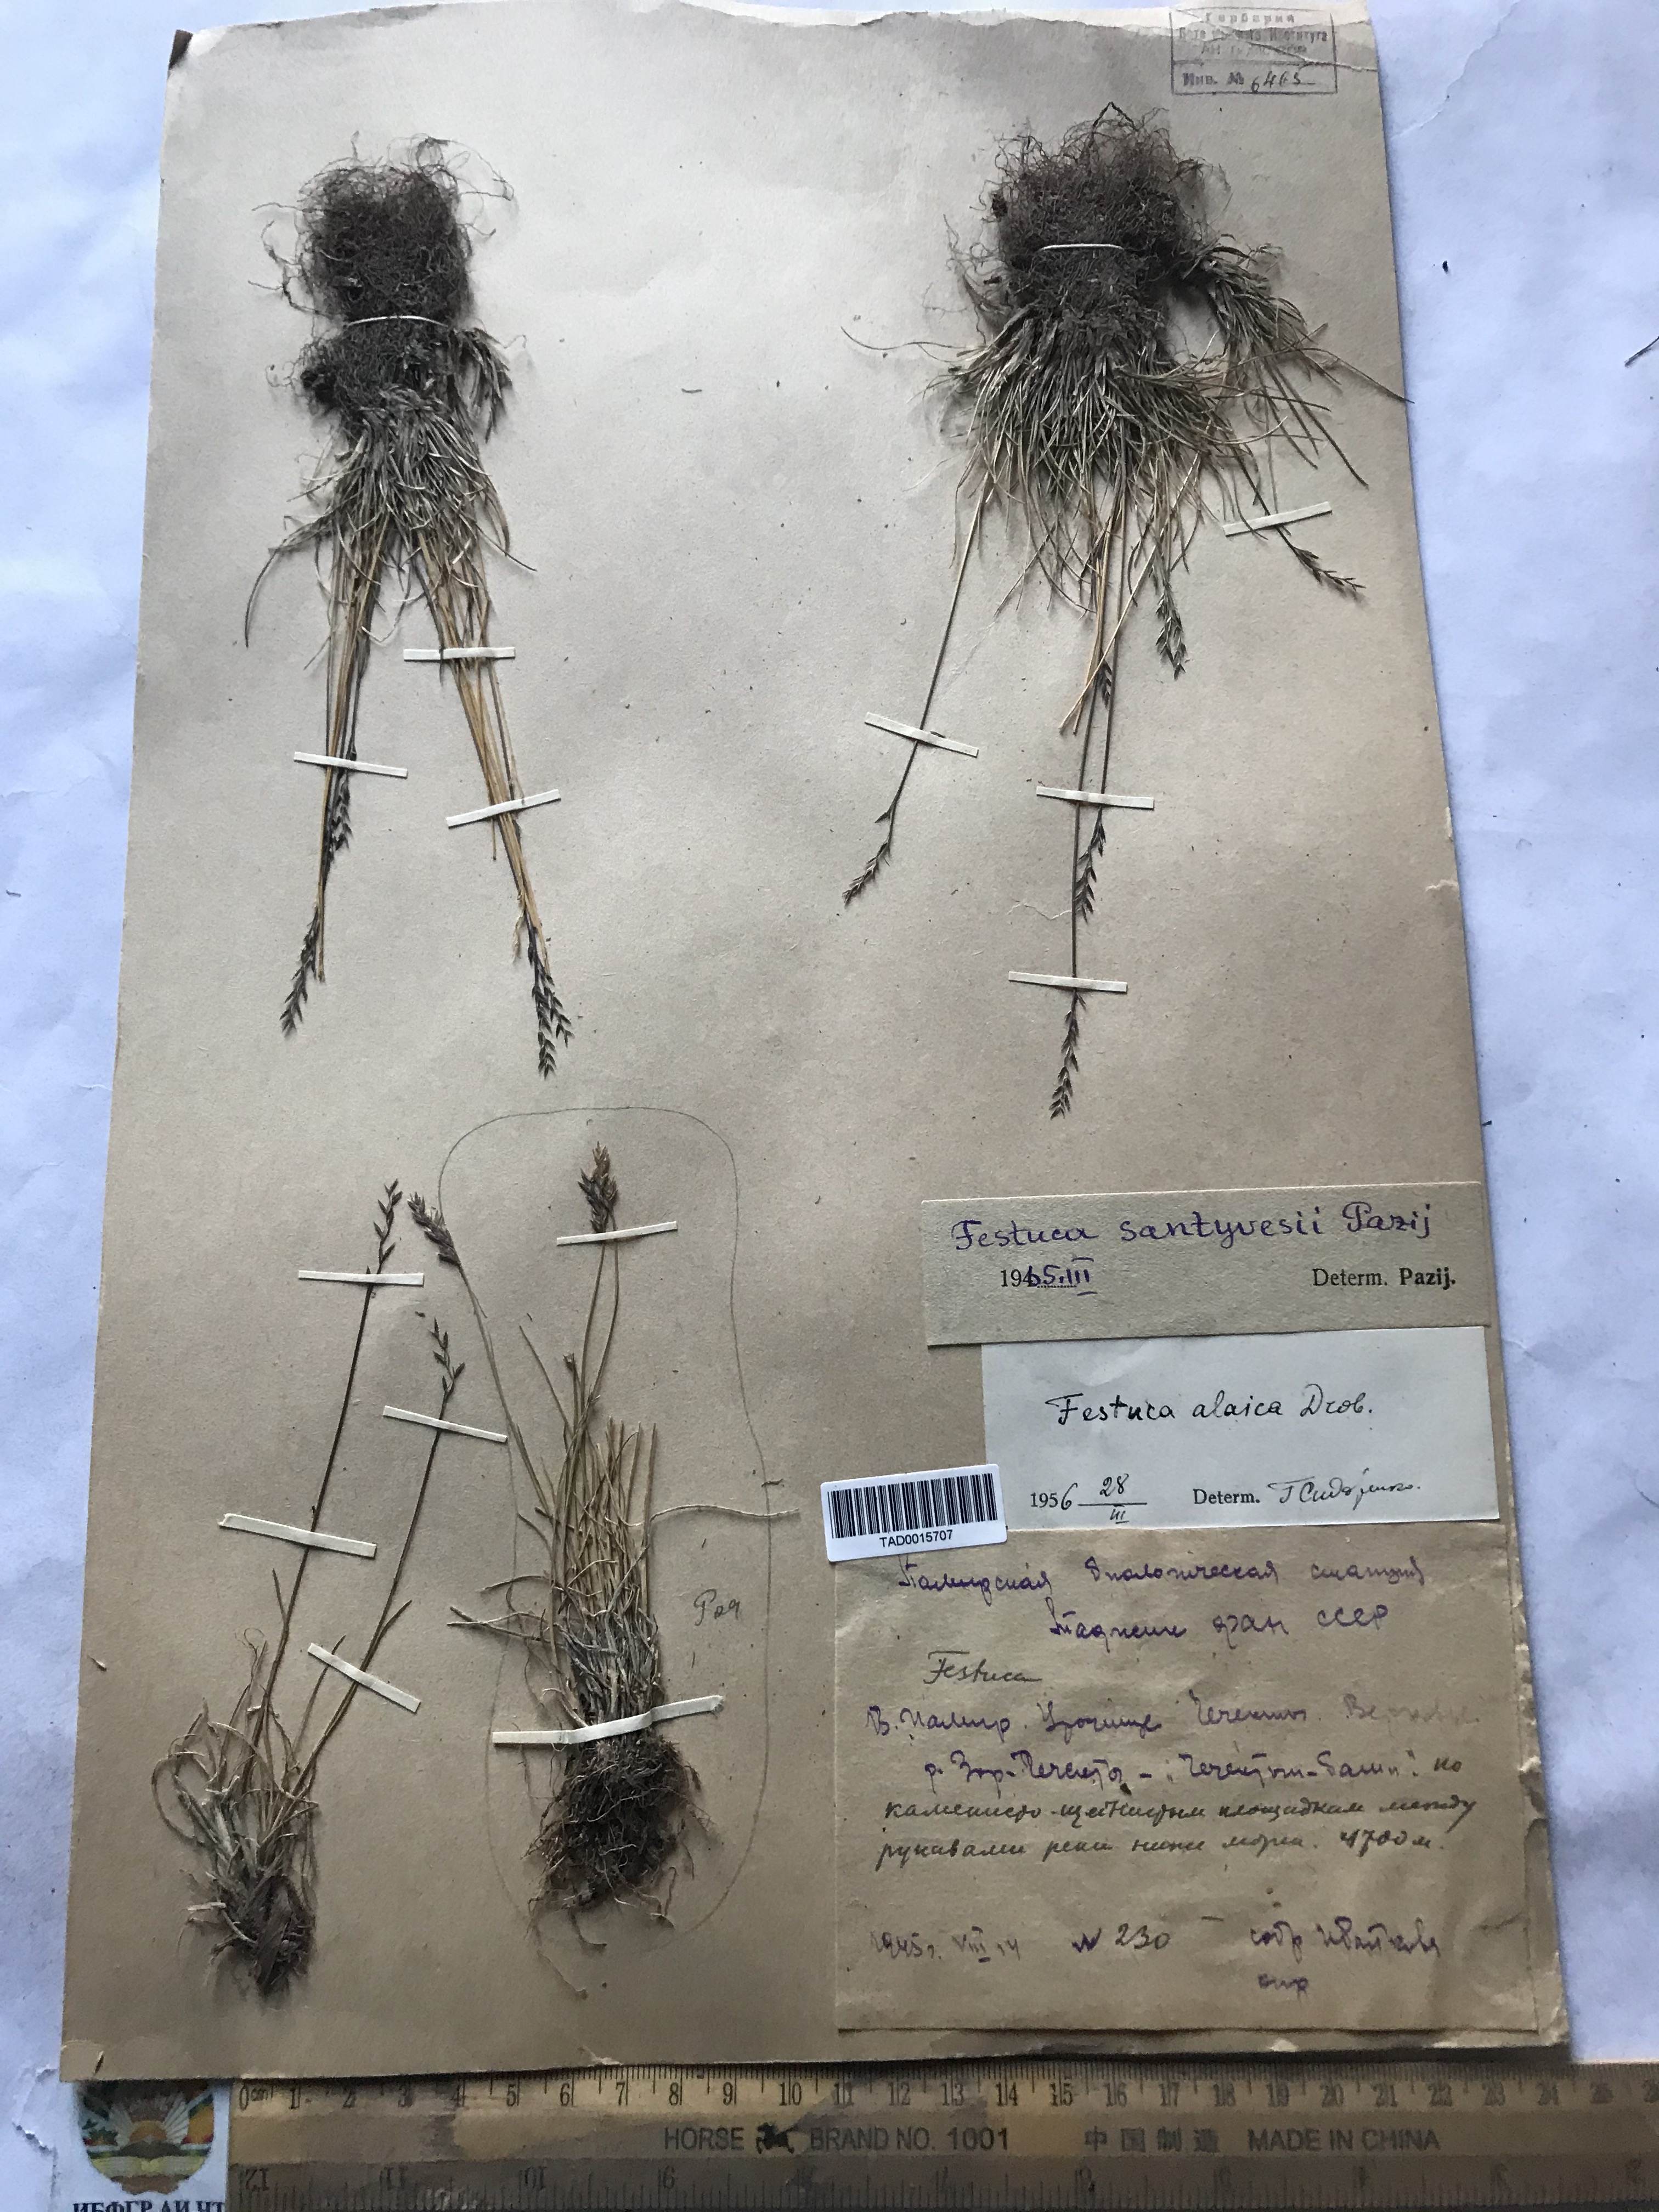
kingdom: Plantae
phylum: Tracheophyta
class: Liliopsida
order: Poales
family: Poaceae
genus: Festuca
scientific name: Festuca coelestis
